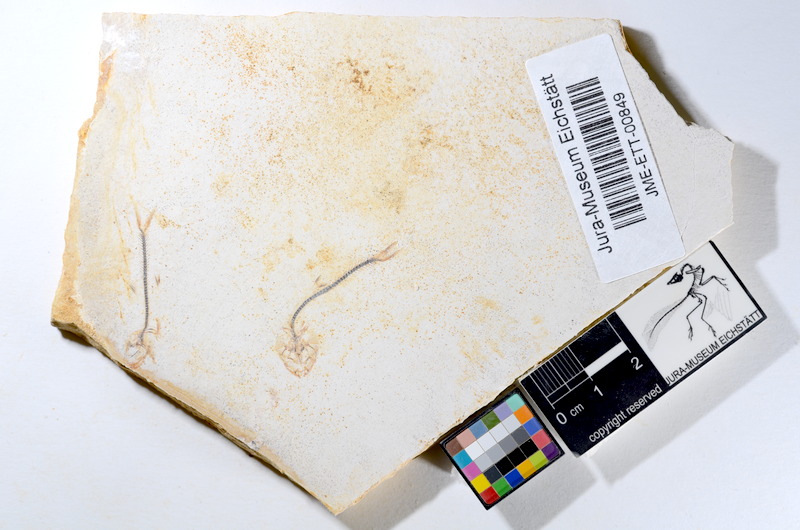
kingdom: Animalia
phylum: Chordata
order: Salmoniformes
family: Orthogonikleithridae
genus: Orthogonikleithrus
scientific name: Orthogonikleithrus hoelli
